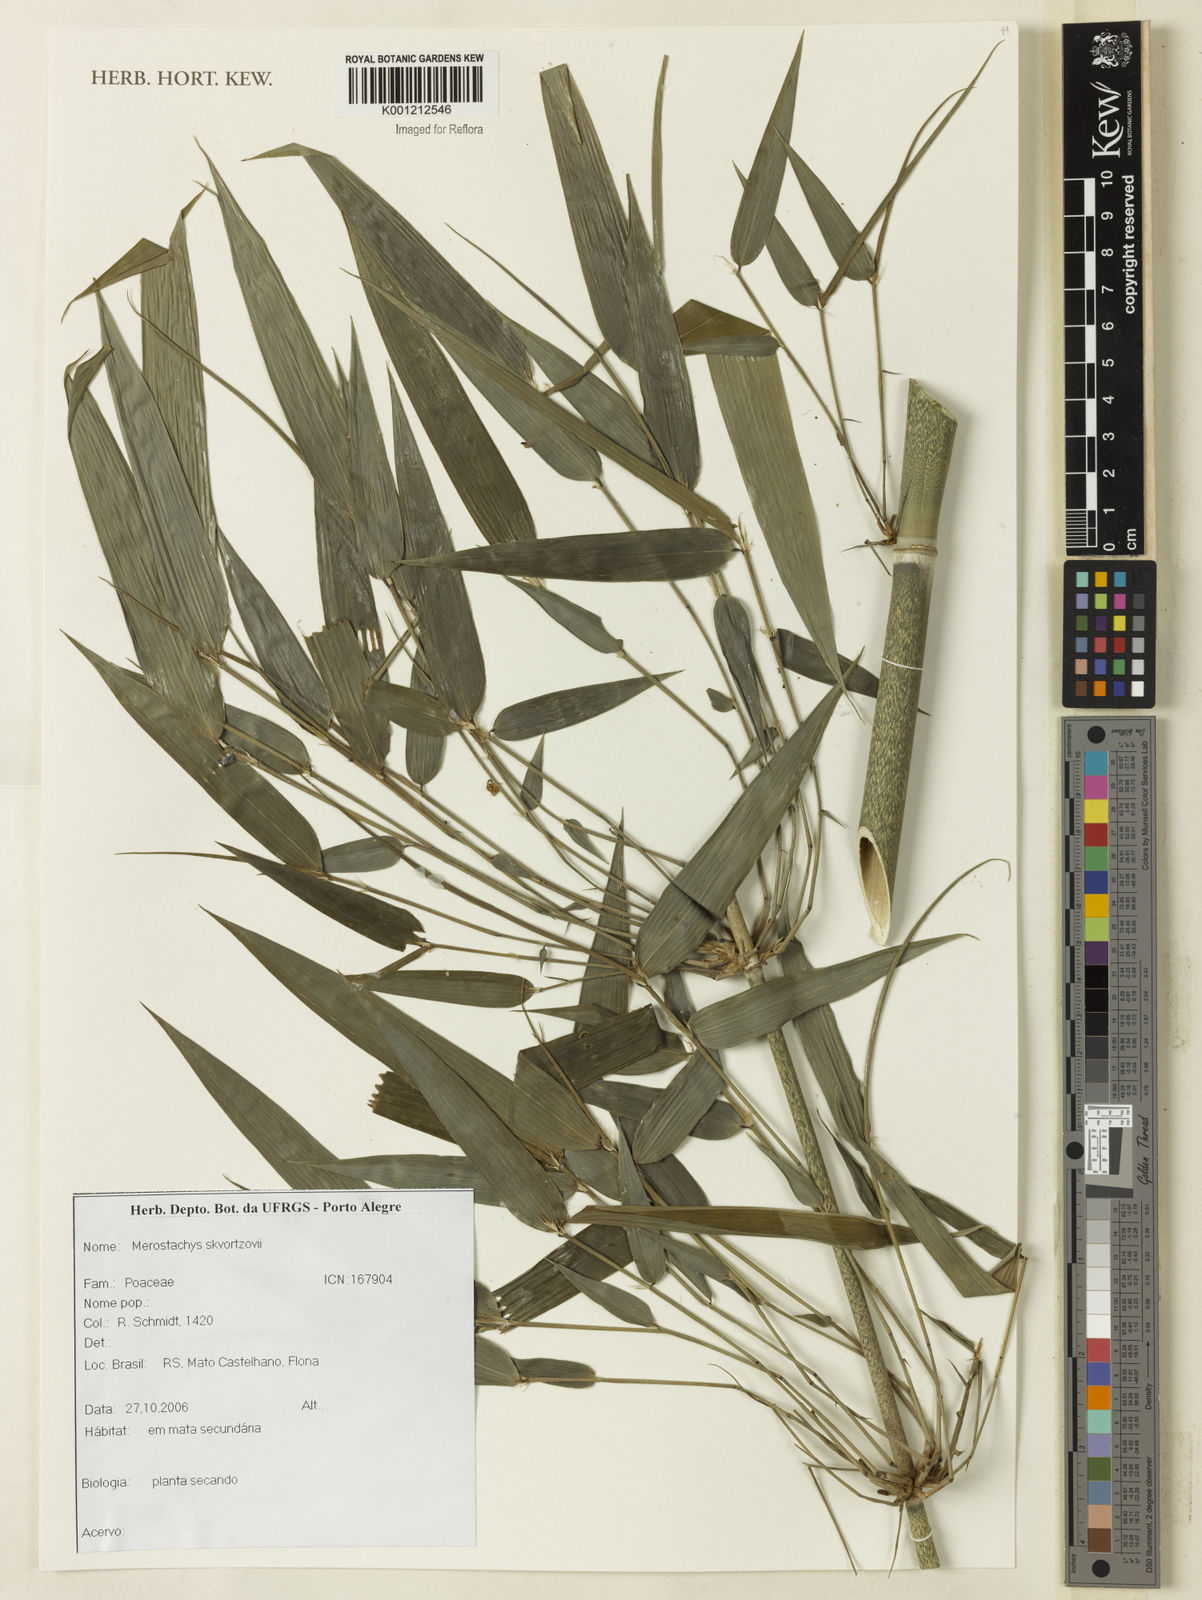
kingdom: Plantae
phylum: Tracheophyta
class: Liliopsida
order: Poales
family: Poaceae
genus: Merostachys
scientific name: Merostachys skvortzovii
